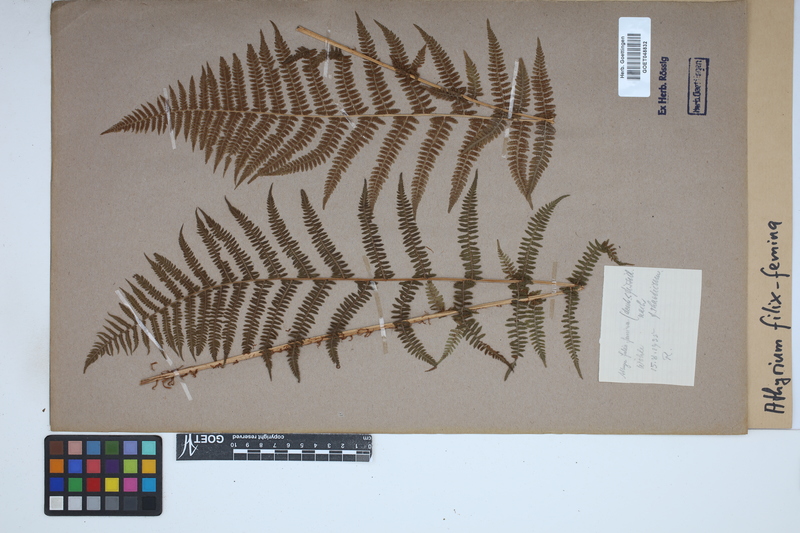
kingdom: Plantae
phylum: Tracheophyta
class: Polypodiopsida
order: Polypodiales
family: Athyriaceae
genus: Athyrium
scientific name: Athyrium filix-femina
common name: Lady fern
